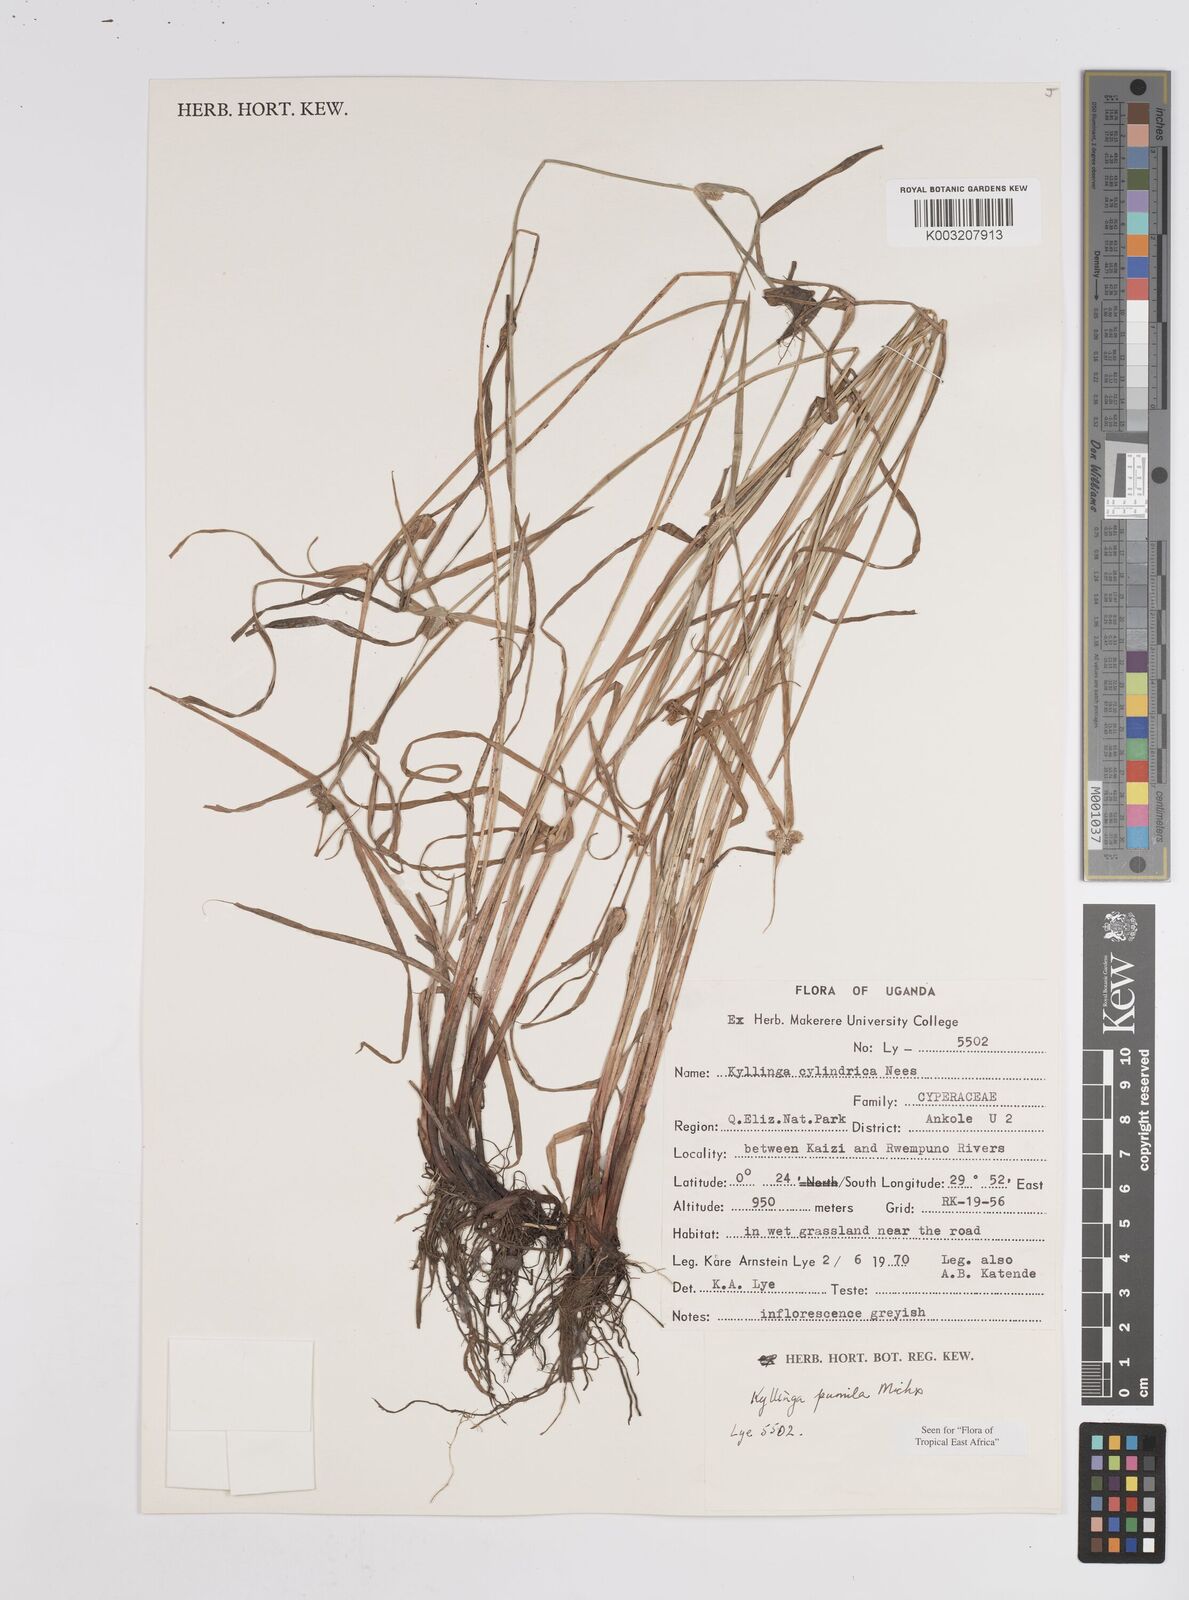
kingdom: Plantae
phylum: Tracheophyta
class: Liliopsida
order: Poales
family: Cyperaceae
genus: Cyperus
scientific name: Cyperus
